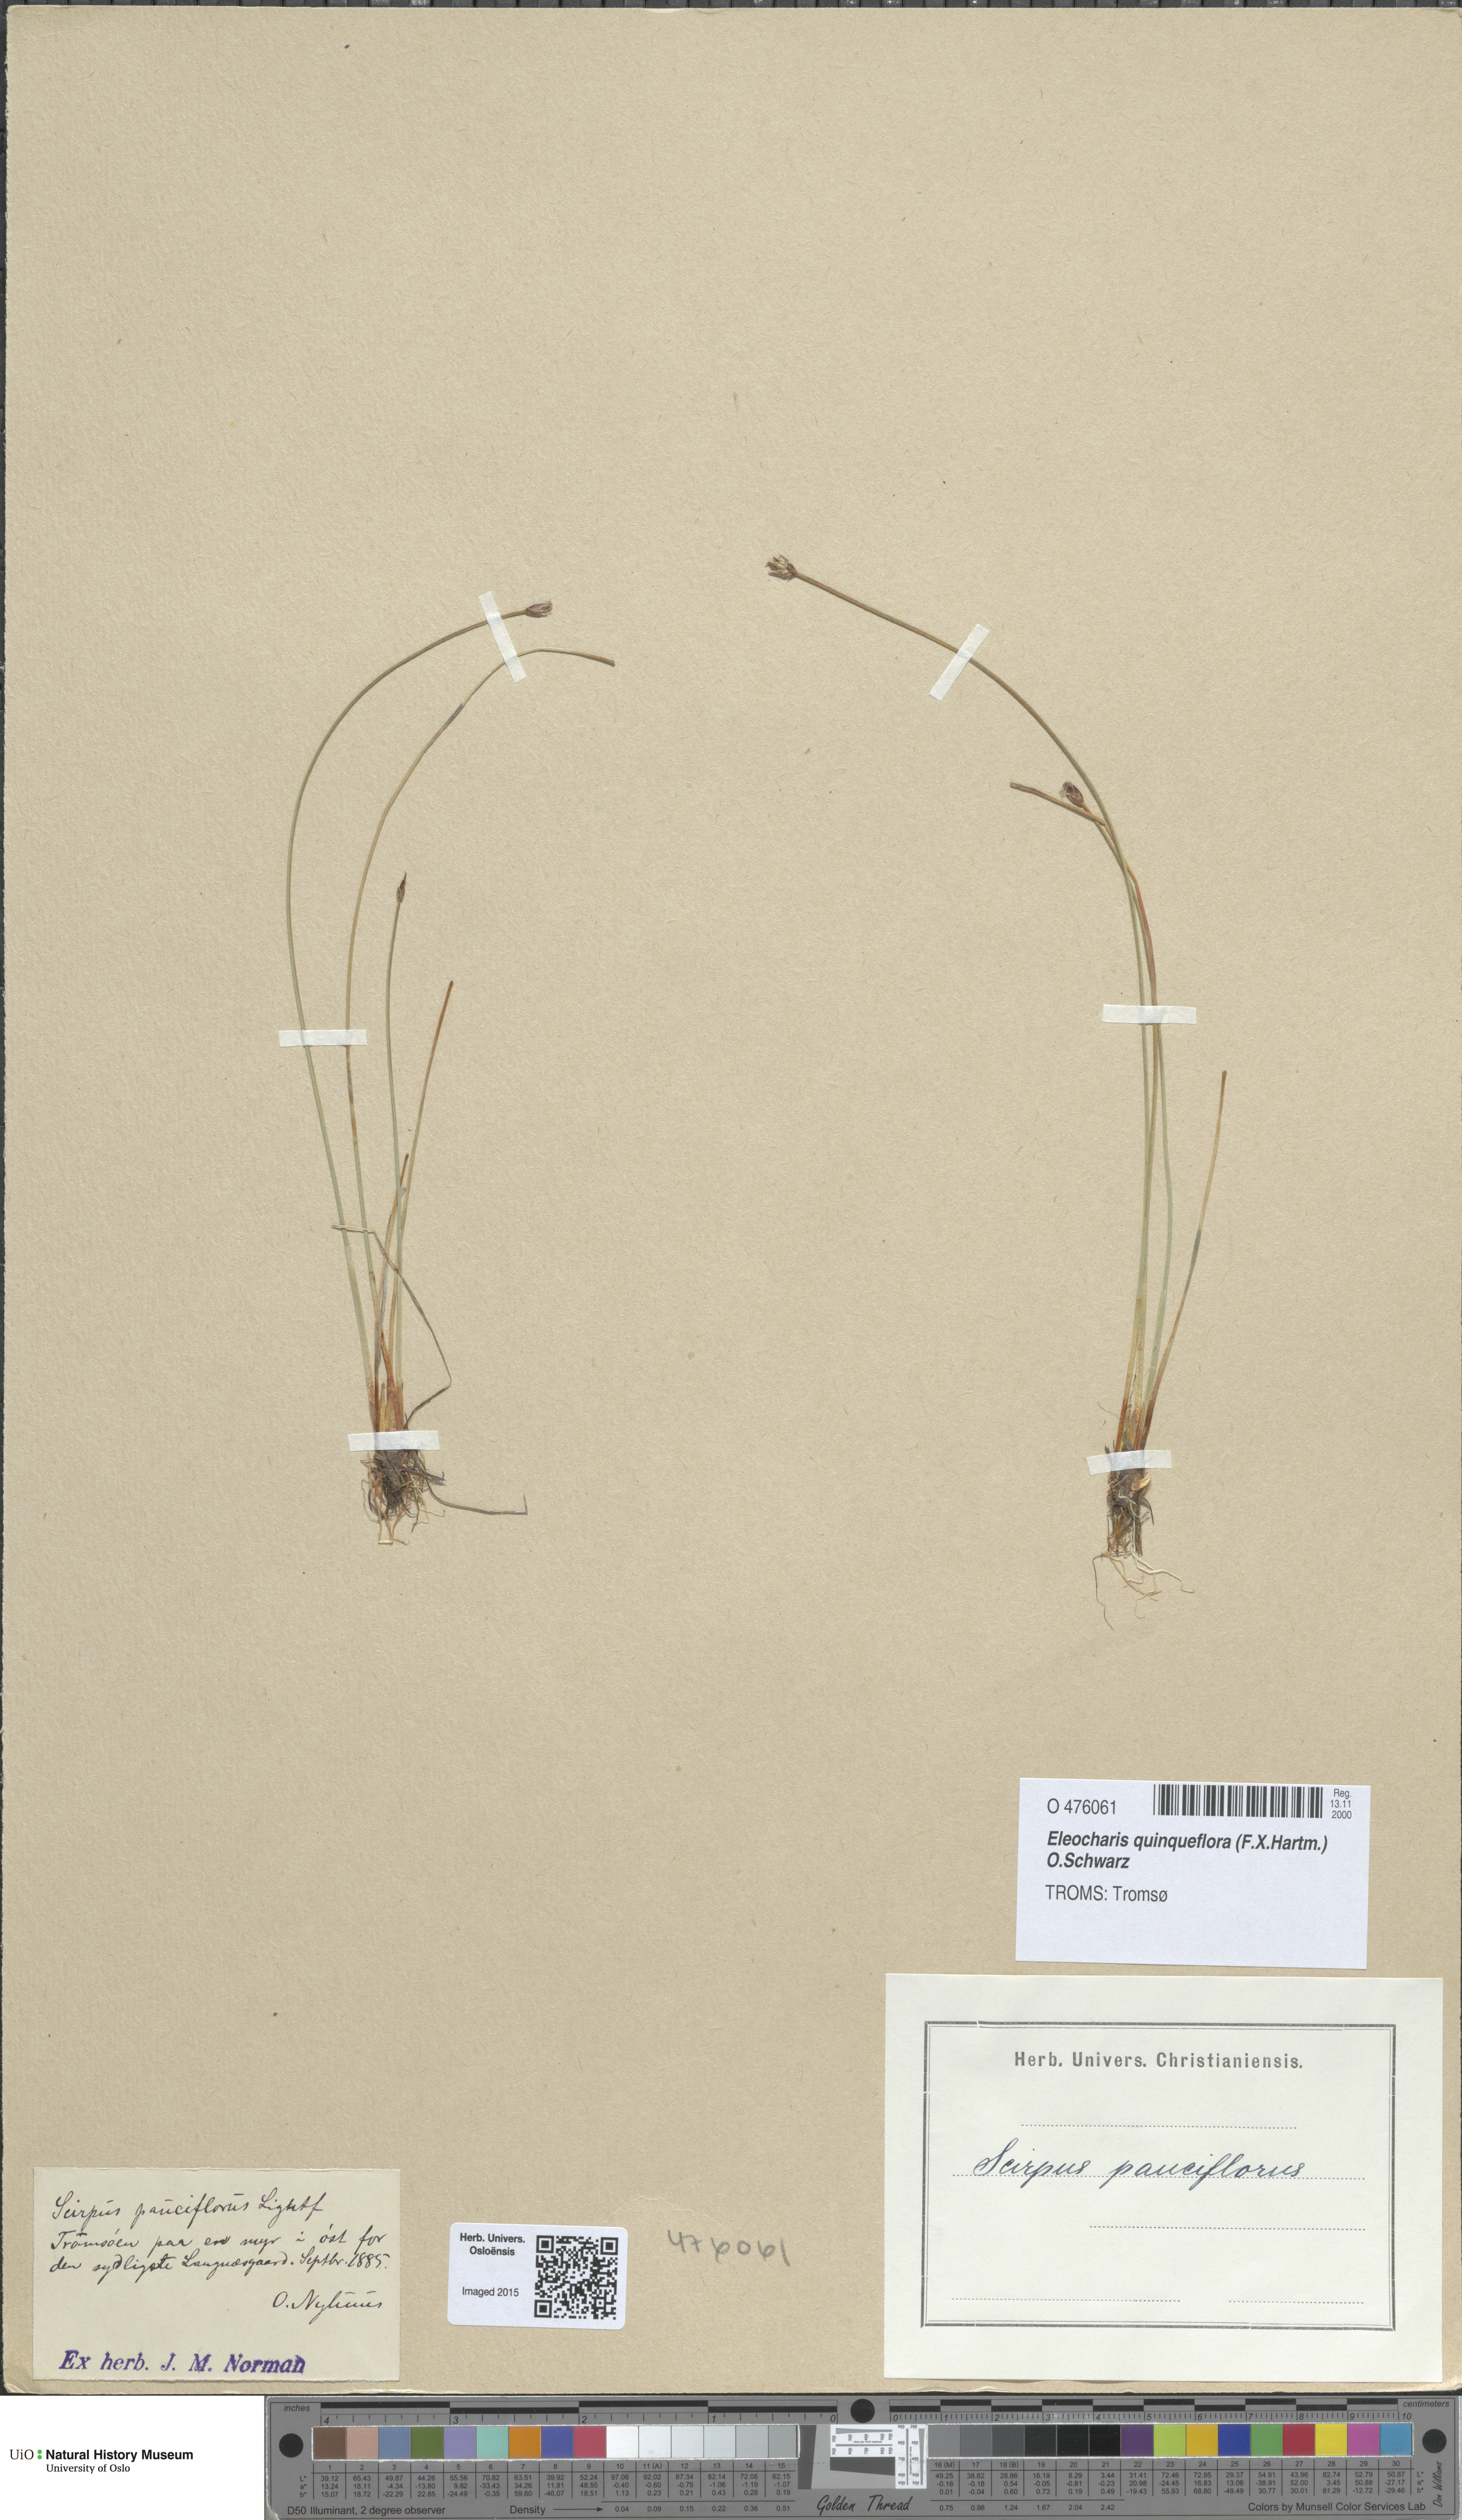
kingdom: Plantae
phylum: Tracheophyta
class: Liliopsida
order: Poales
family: Cyperaceae
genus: Eleocharis
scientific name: Eleocharis quinqueflora
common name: Few-flowered spike-rush
